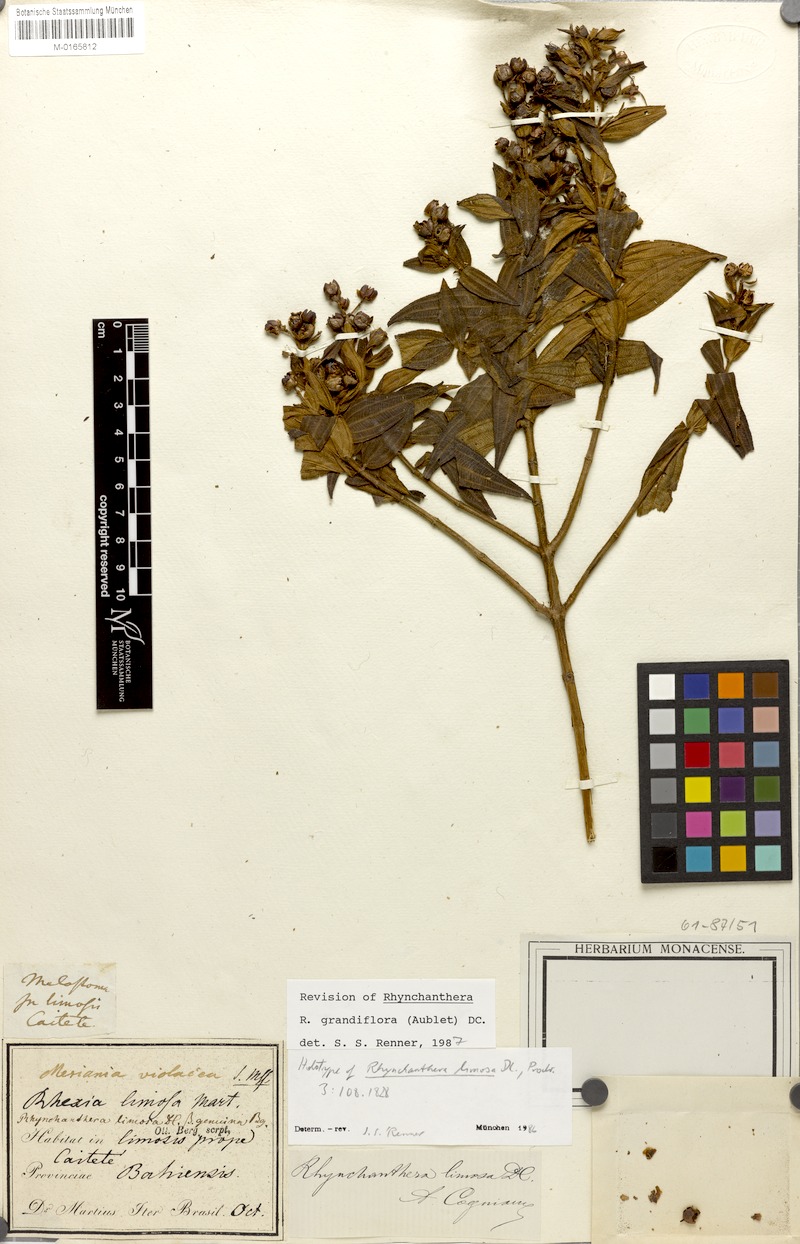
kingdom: Plantae
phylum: Tracheophyta
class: Magnoliopsida
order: Myrtales
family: Melastomataceae
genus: Rhynchanthera
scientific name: Rhynchanthera grandiflora
